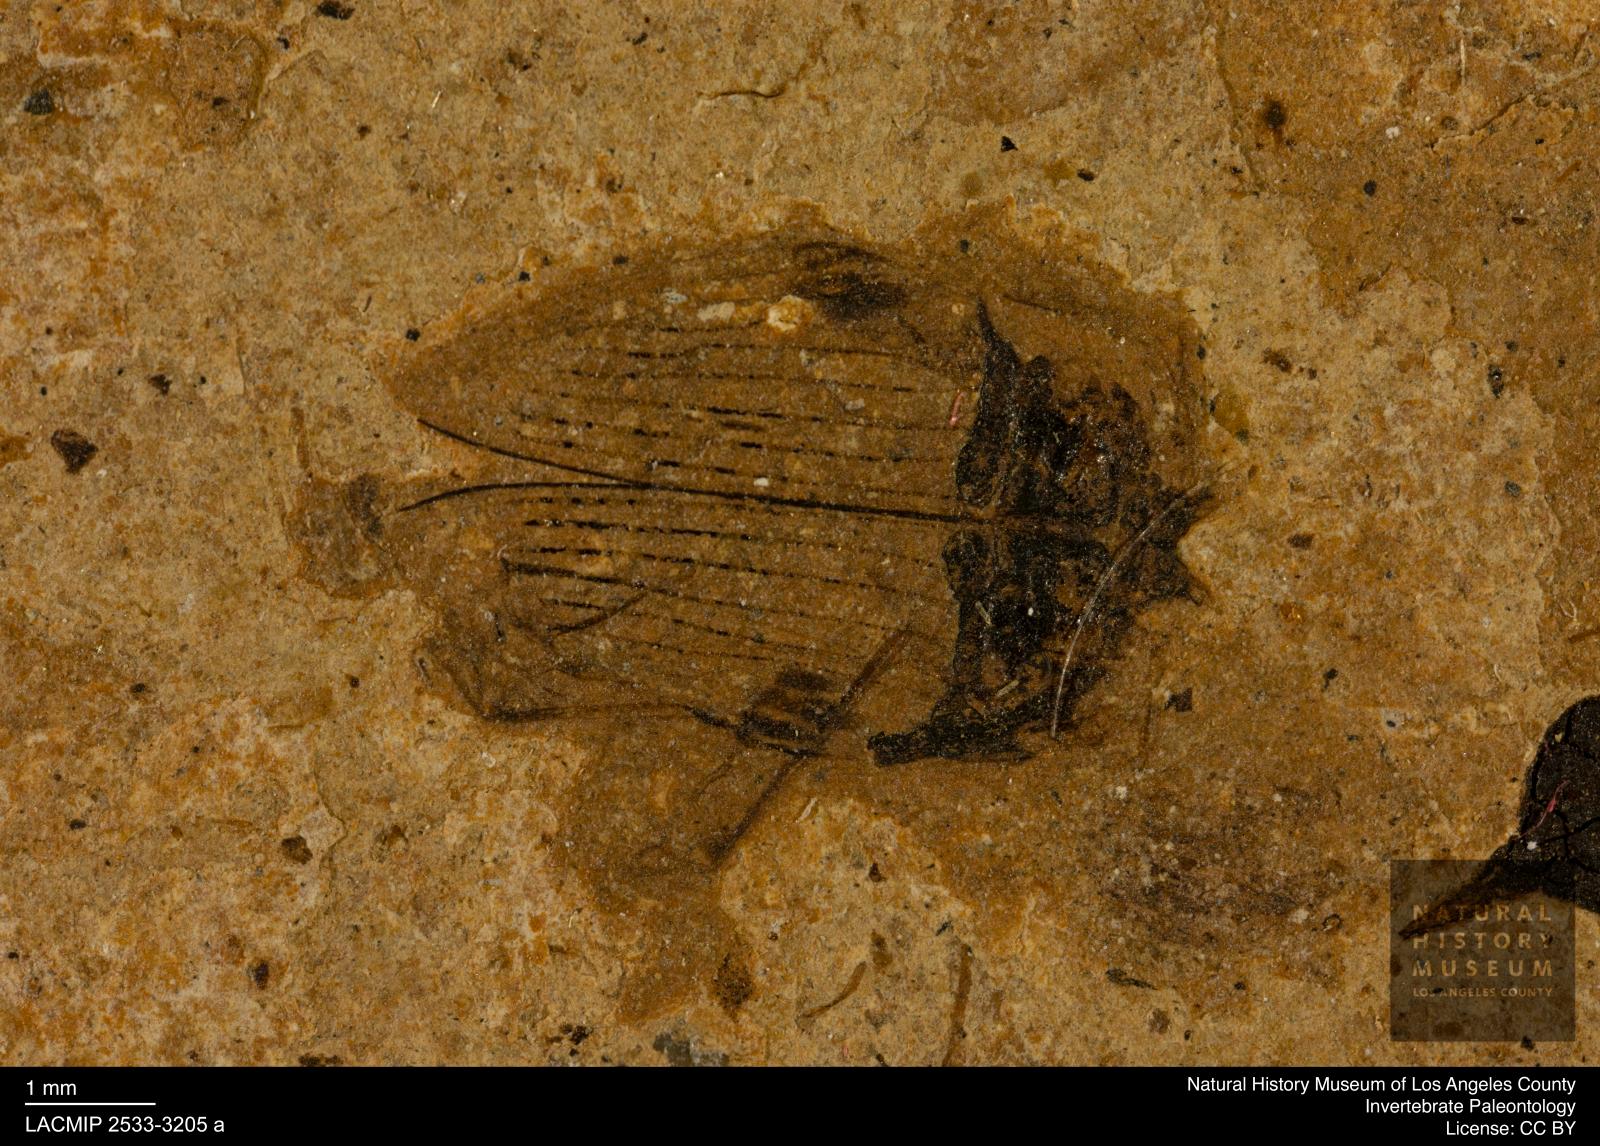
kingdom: Animalia
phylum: Arthropoda
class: Insecta
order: Coleoptera
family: Hydrophilidae
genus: Berosus
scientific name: Berosus morticinus
